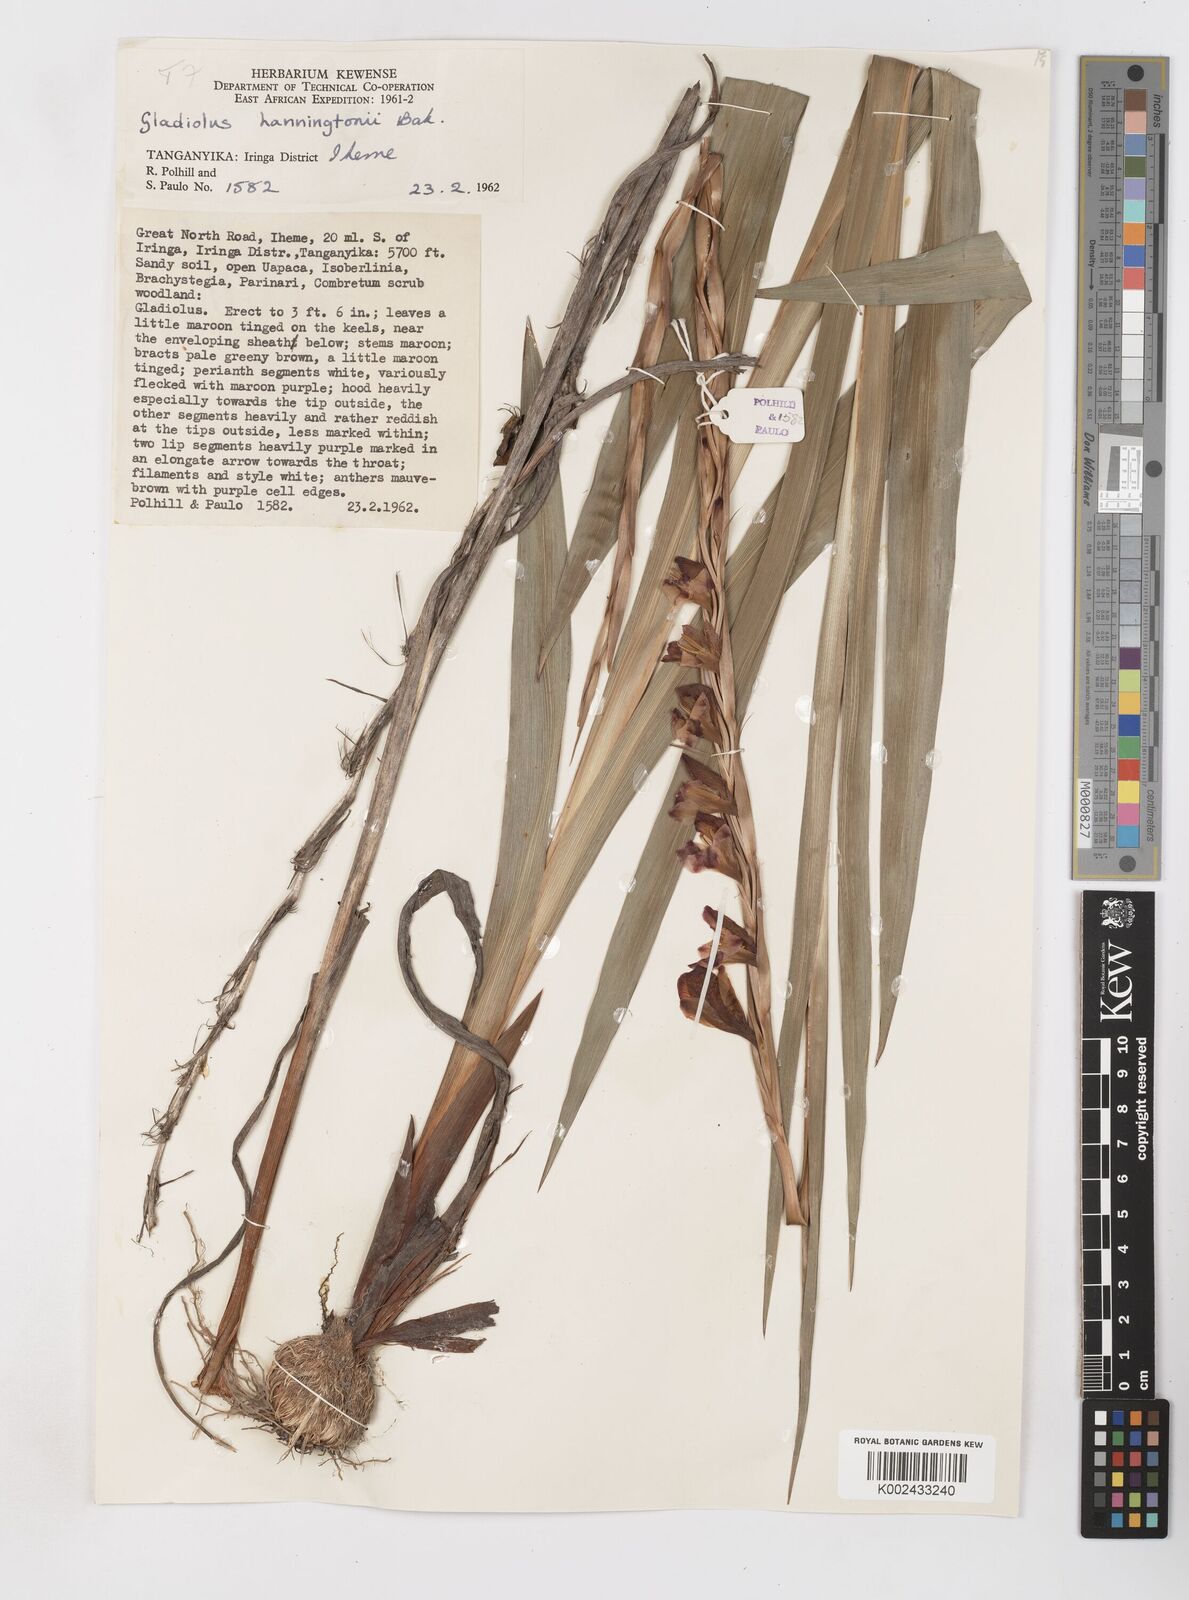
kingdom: Plantae
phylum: Tracheophyta
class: Liliopsida
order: Asparagales
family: Iridaceae
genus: Gladiolus
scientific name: Gladiolus gregarius
